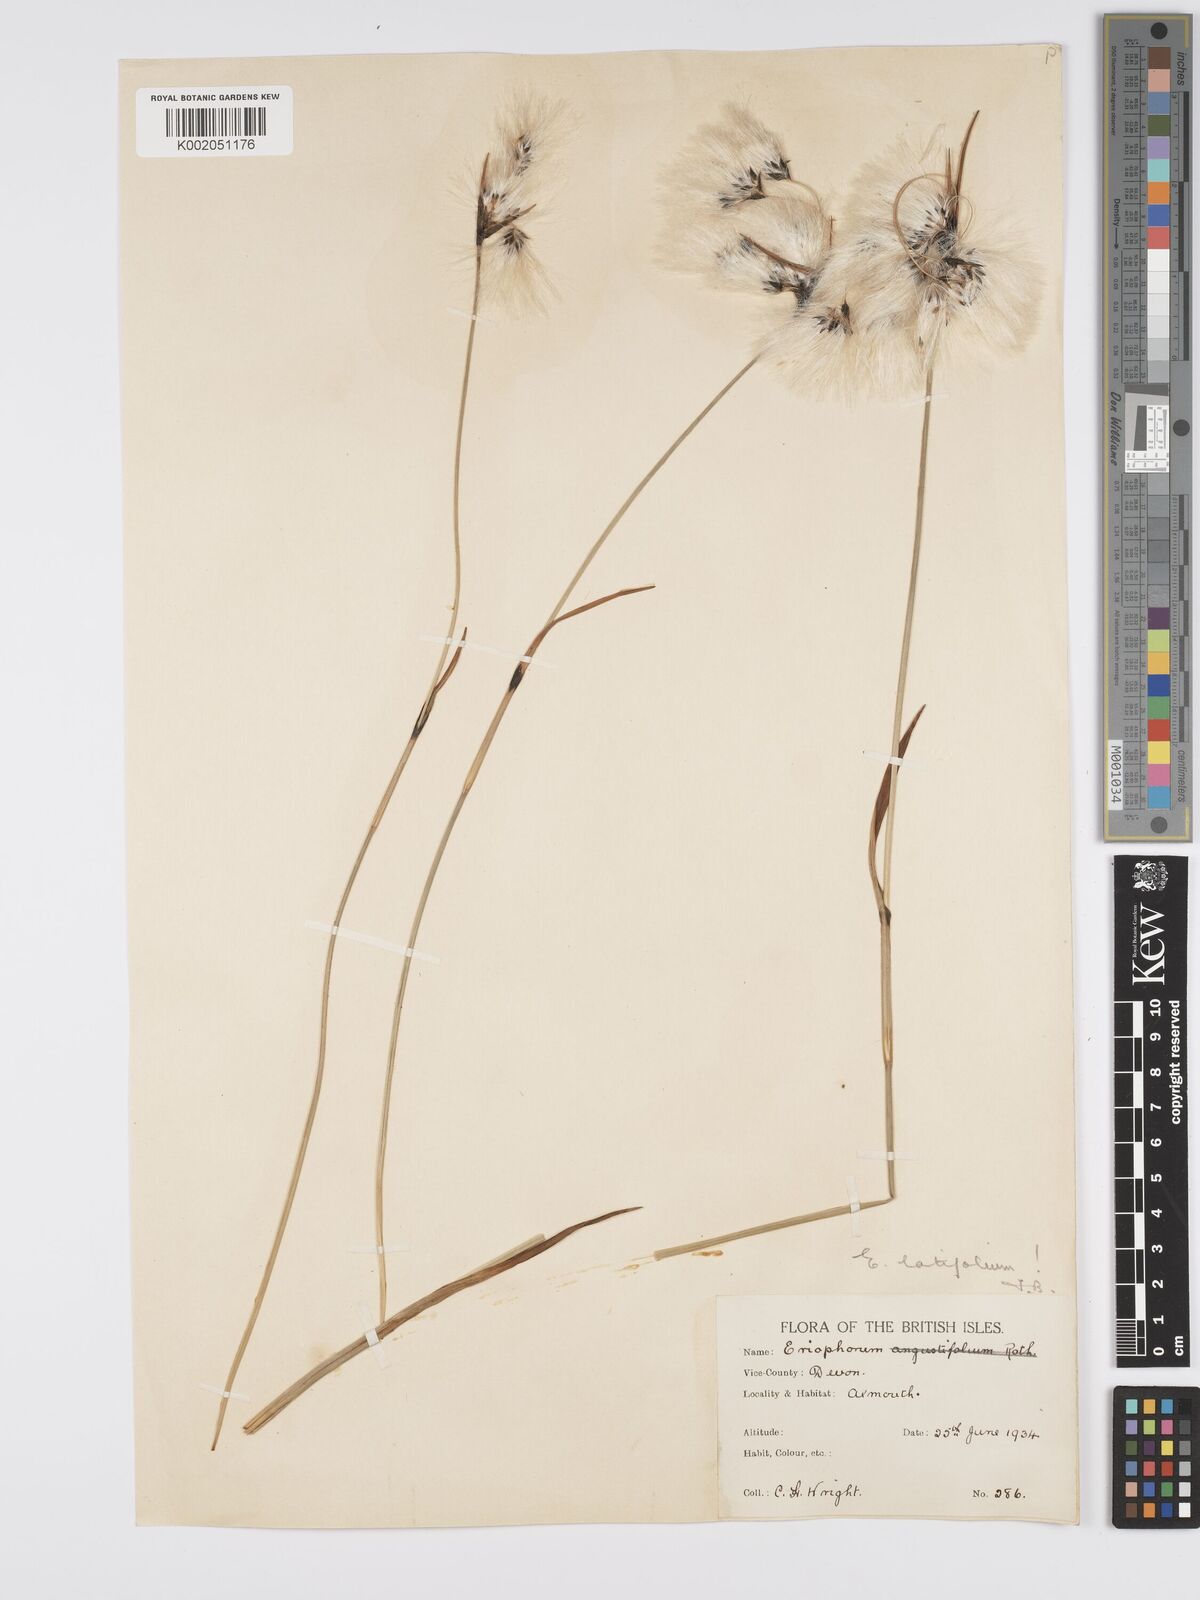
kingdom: Plantae
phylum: Tracheophyta
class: Liliopsida
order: Poales
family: Cyperaceae
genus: Eriophorum
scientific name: Eriophorum latifolium
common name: Broad-leaved cottongrass
